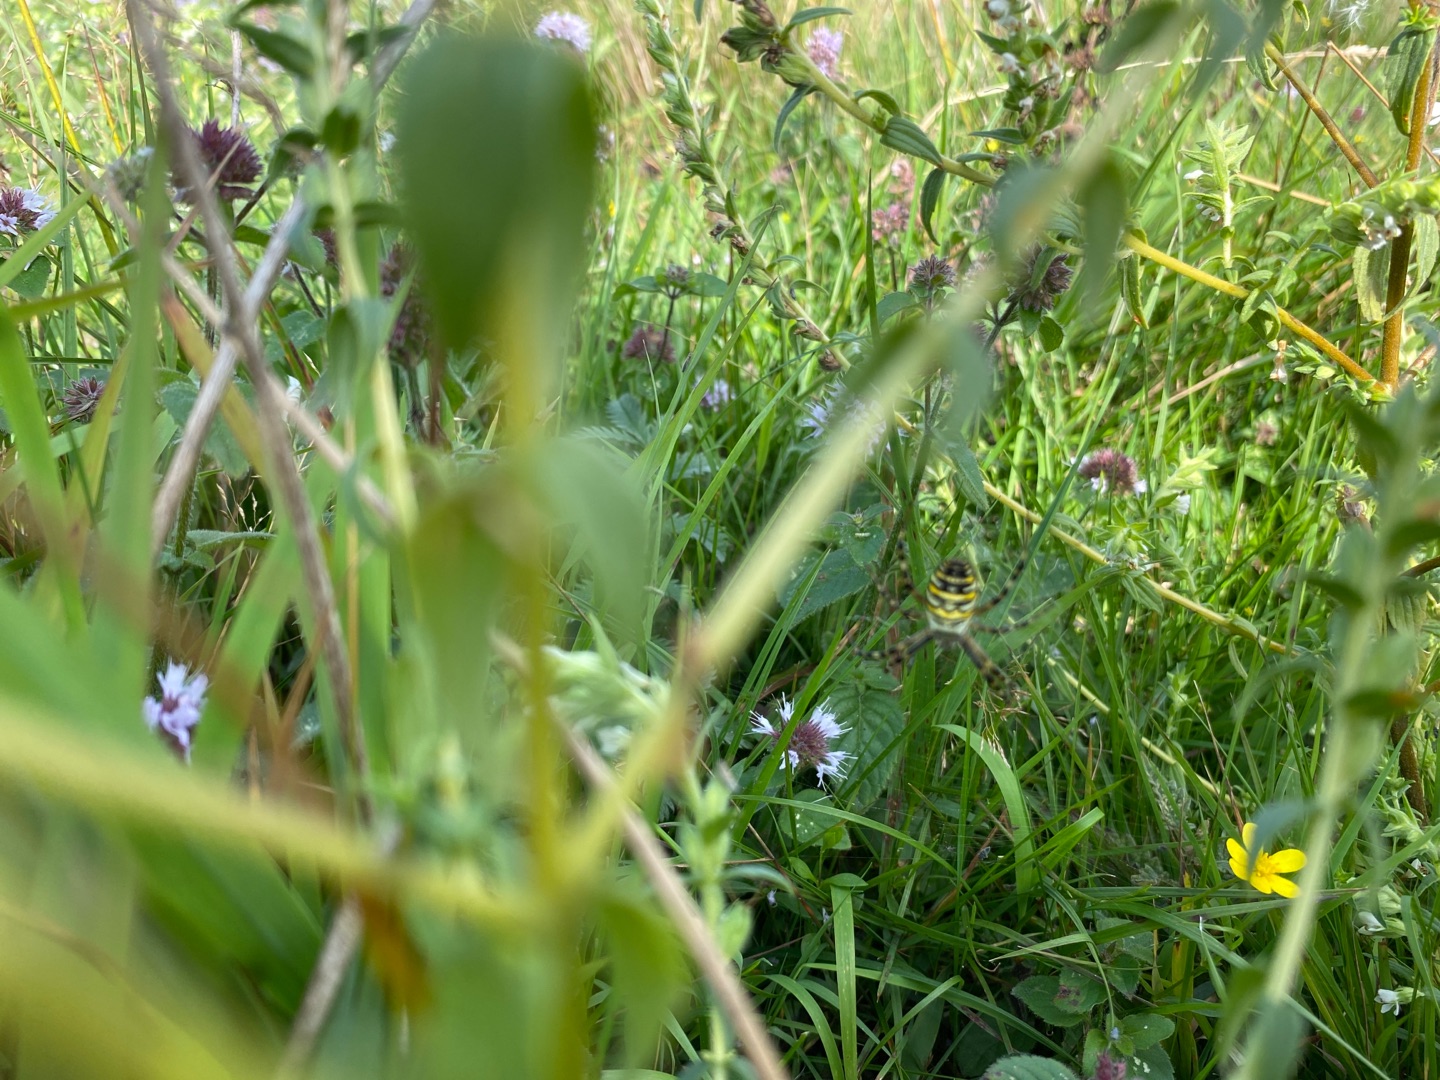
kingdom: Animalia
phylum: Arthropoda
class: Arachnida
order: Araneae
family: Araneidae
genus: Argiope
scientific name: Argiope bruennichi
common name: Hvepseedderkop
